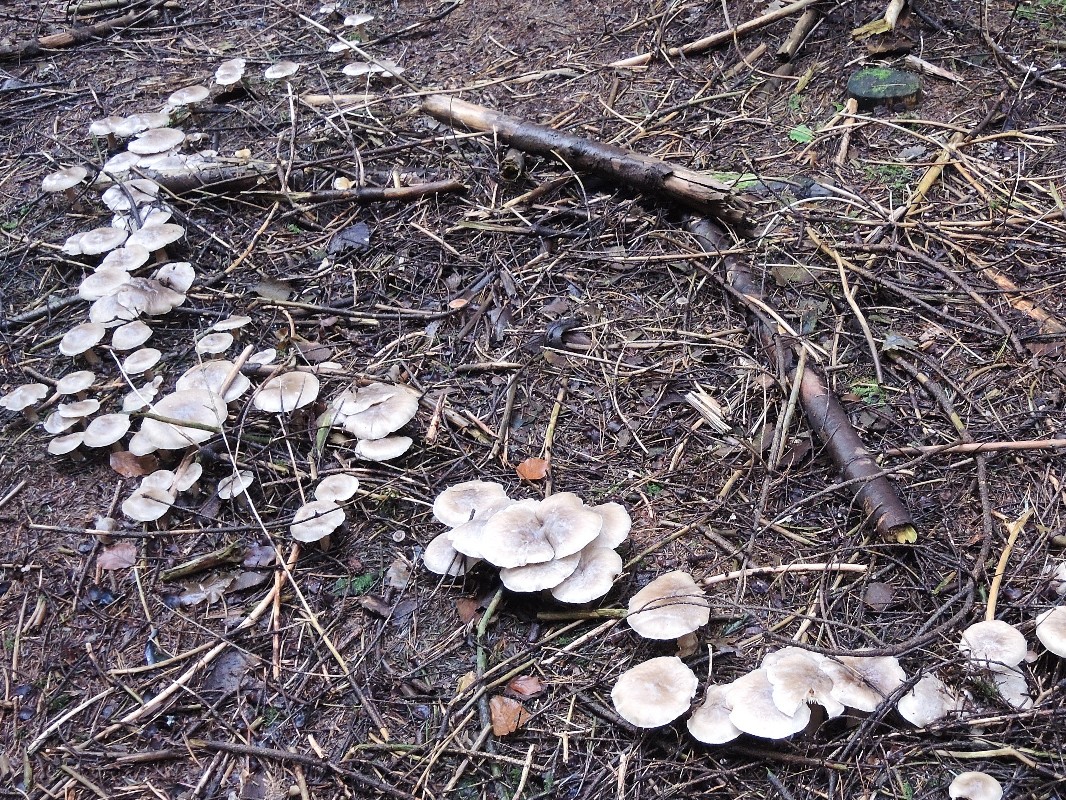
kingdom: Fungi
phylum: Basidiomycota
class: Agaricomycetes
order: Agaricales
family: Tricholomataceae
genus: Clitocybe
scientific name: Clitocybe nebularis
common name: tåge-tragthat
